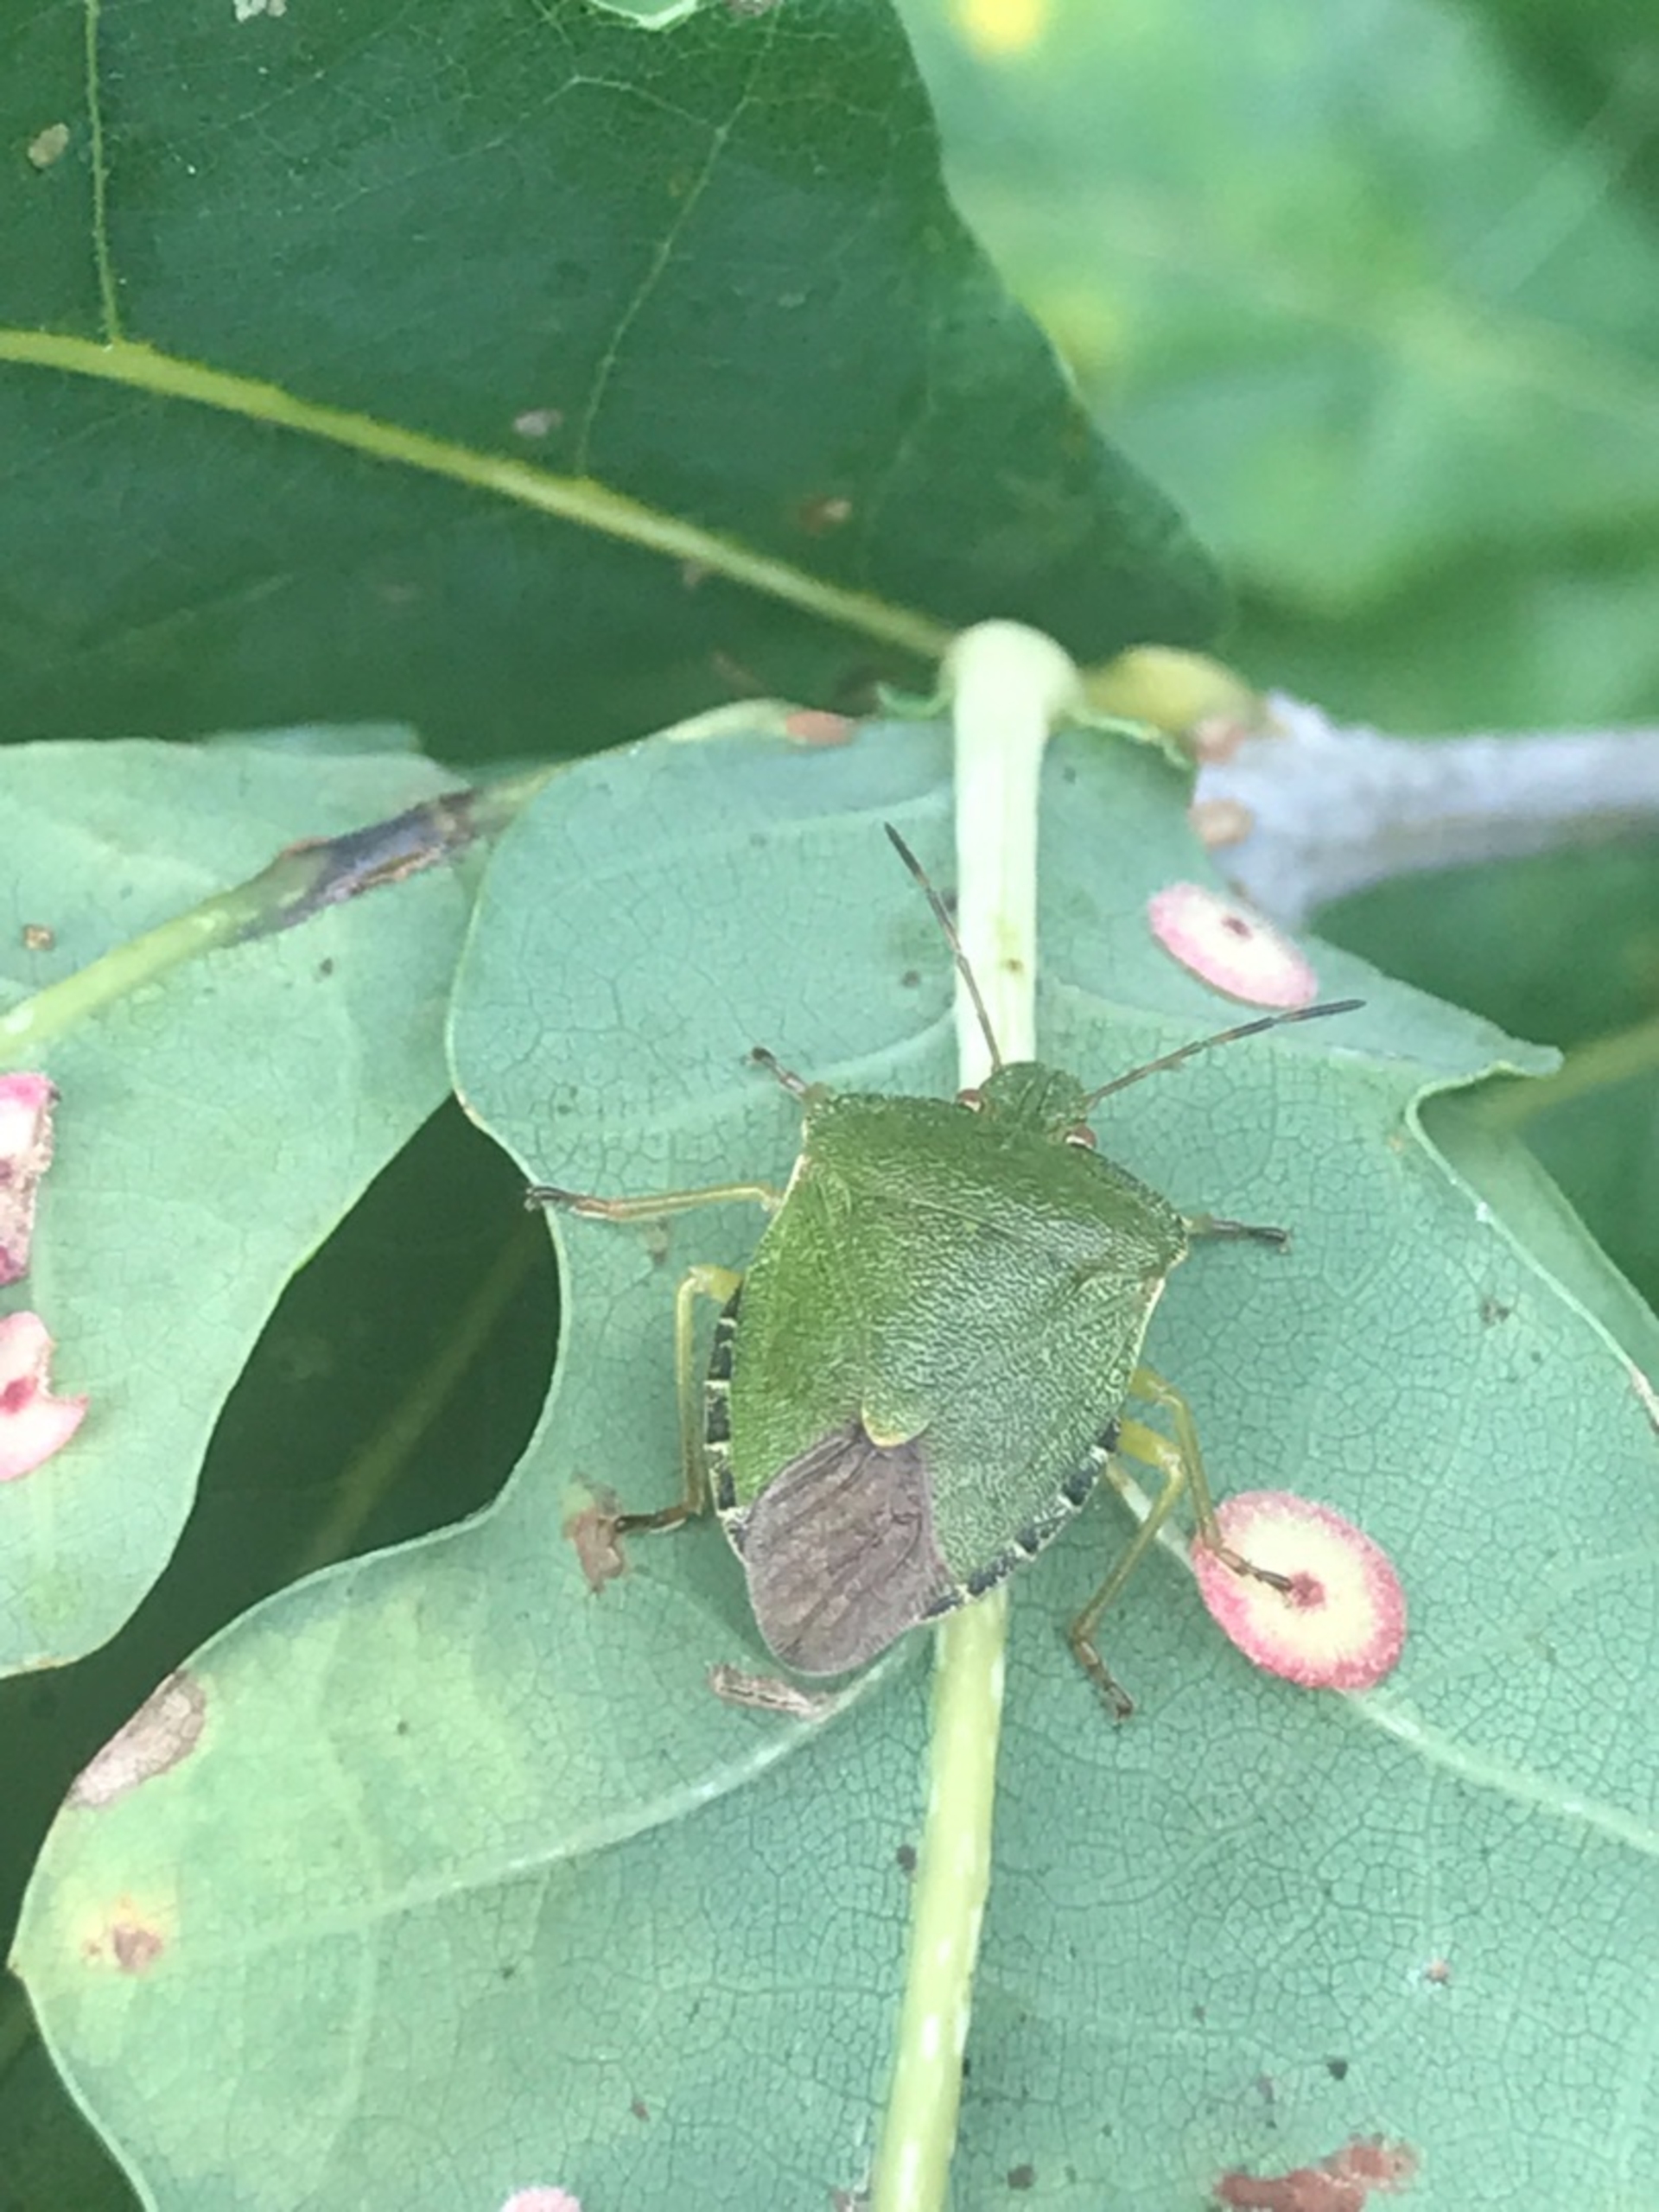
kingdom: Animalia
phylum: Arthropoda
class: Insecta
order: Hemiptera
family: Pentatomidae
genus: Palomena
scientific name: Palomena prasina
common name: Grøn bredtæge
